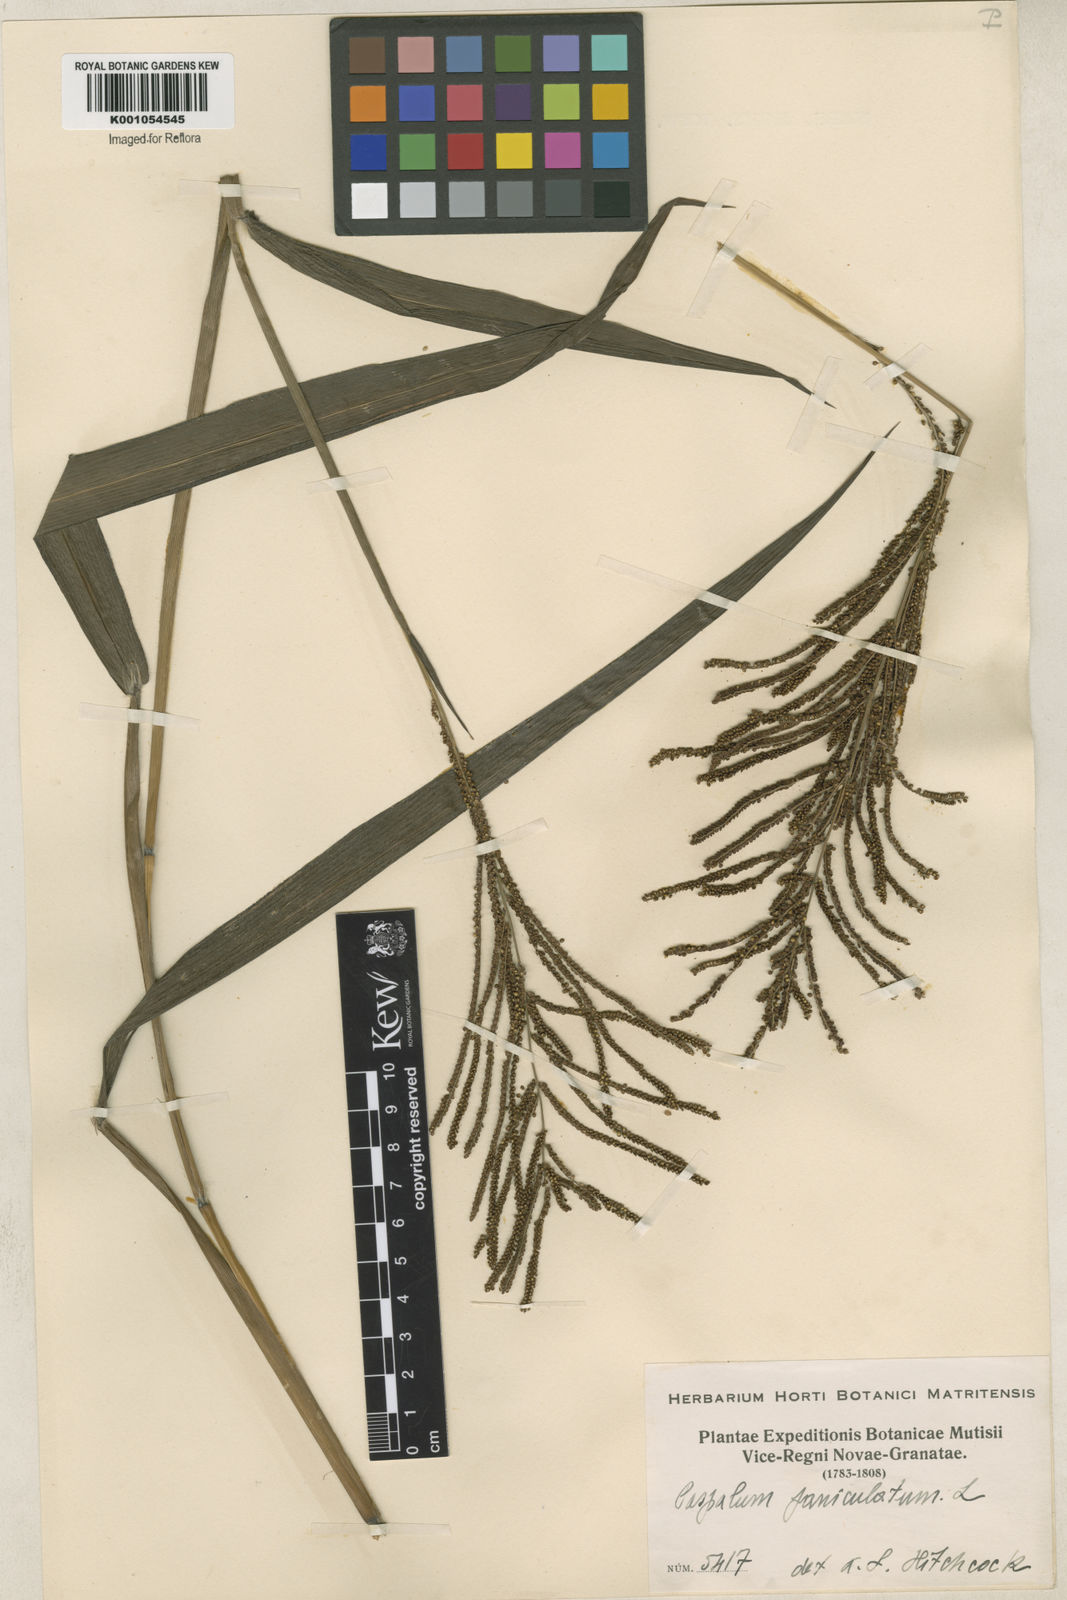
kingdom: Plantae
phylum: Tracheophyta
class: Liliopsida
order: Poales
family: Poaceae
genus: Paspalum
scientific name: Paspalum paniculatum
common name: Arrocillo
